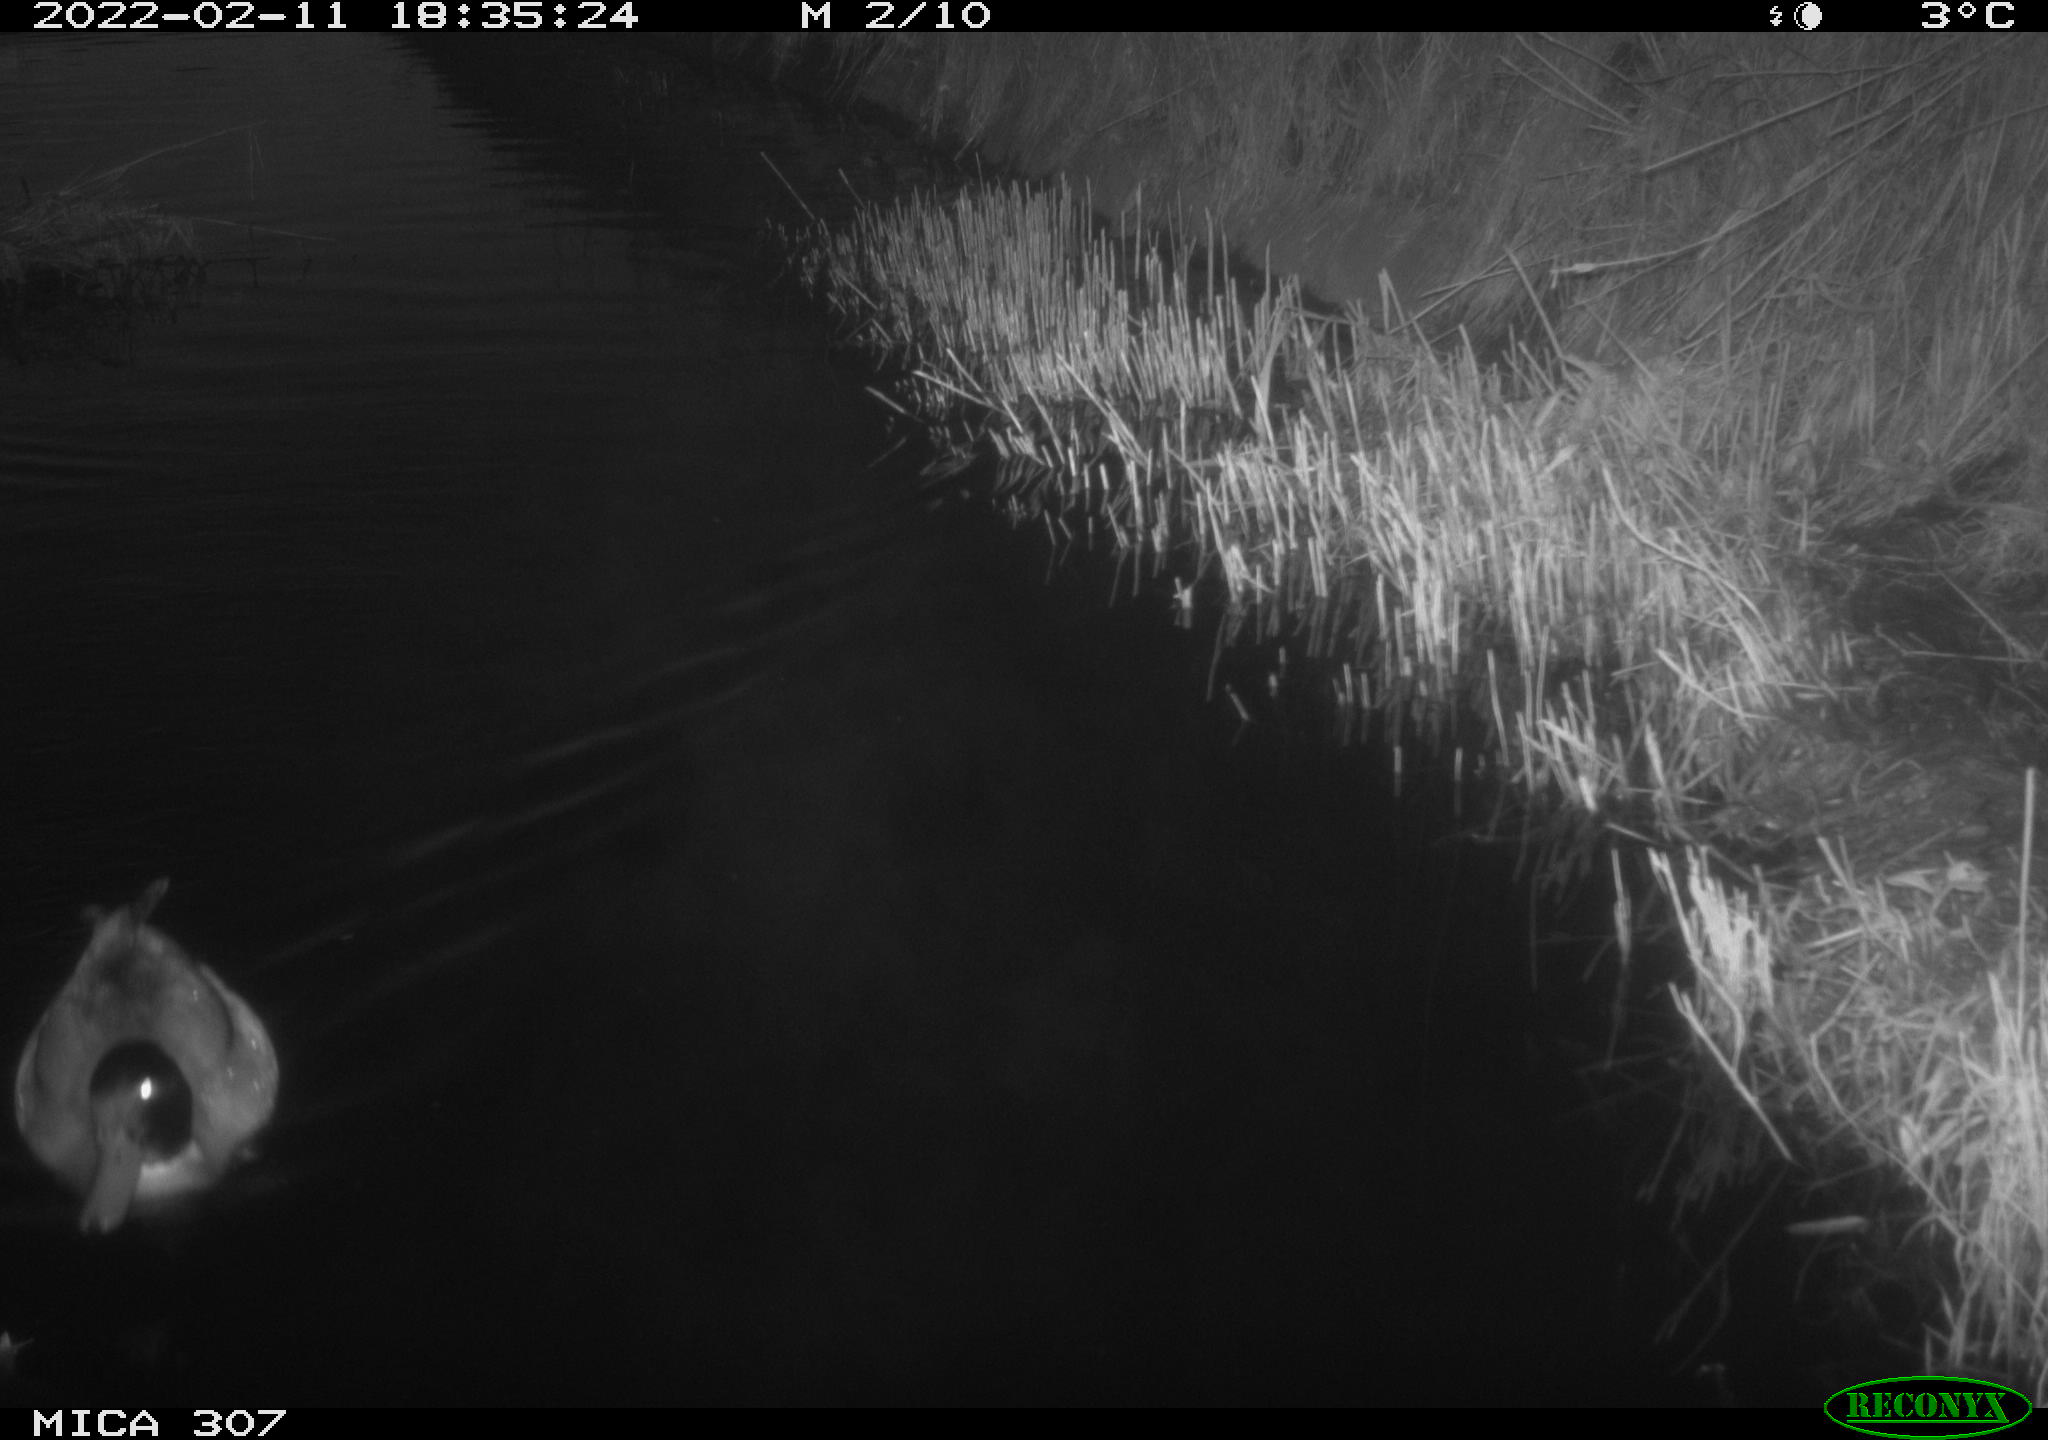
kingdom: Animalia
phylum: Chordata
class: Aves
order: Anseriformes
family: Anatidae
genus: Anas
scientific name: Anas platyrhynchos
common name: Mallard
